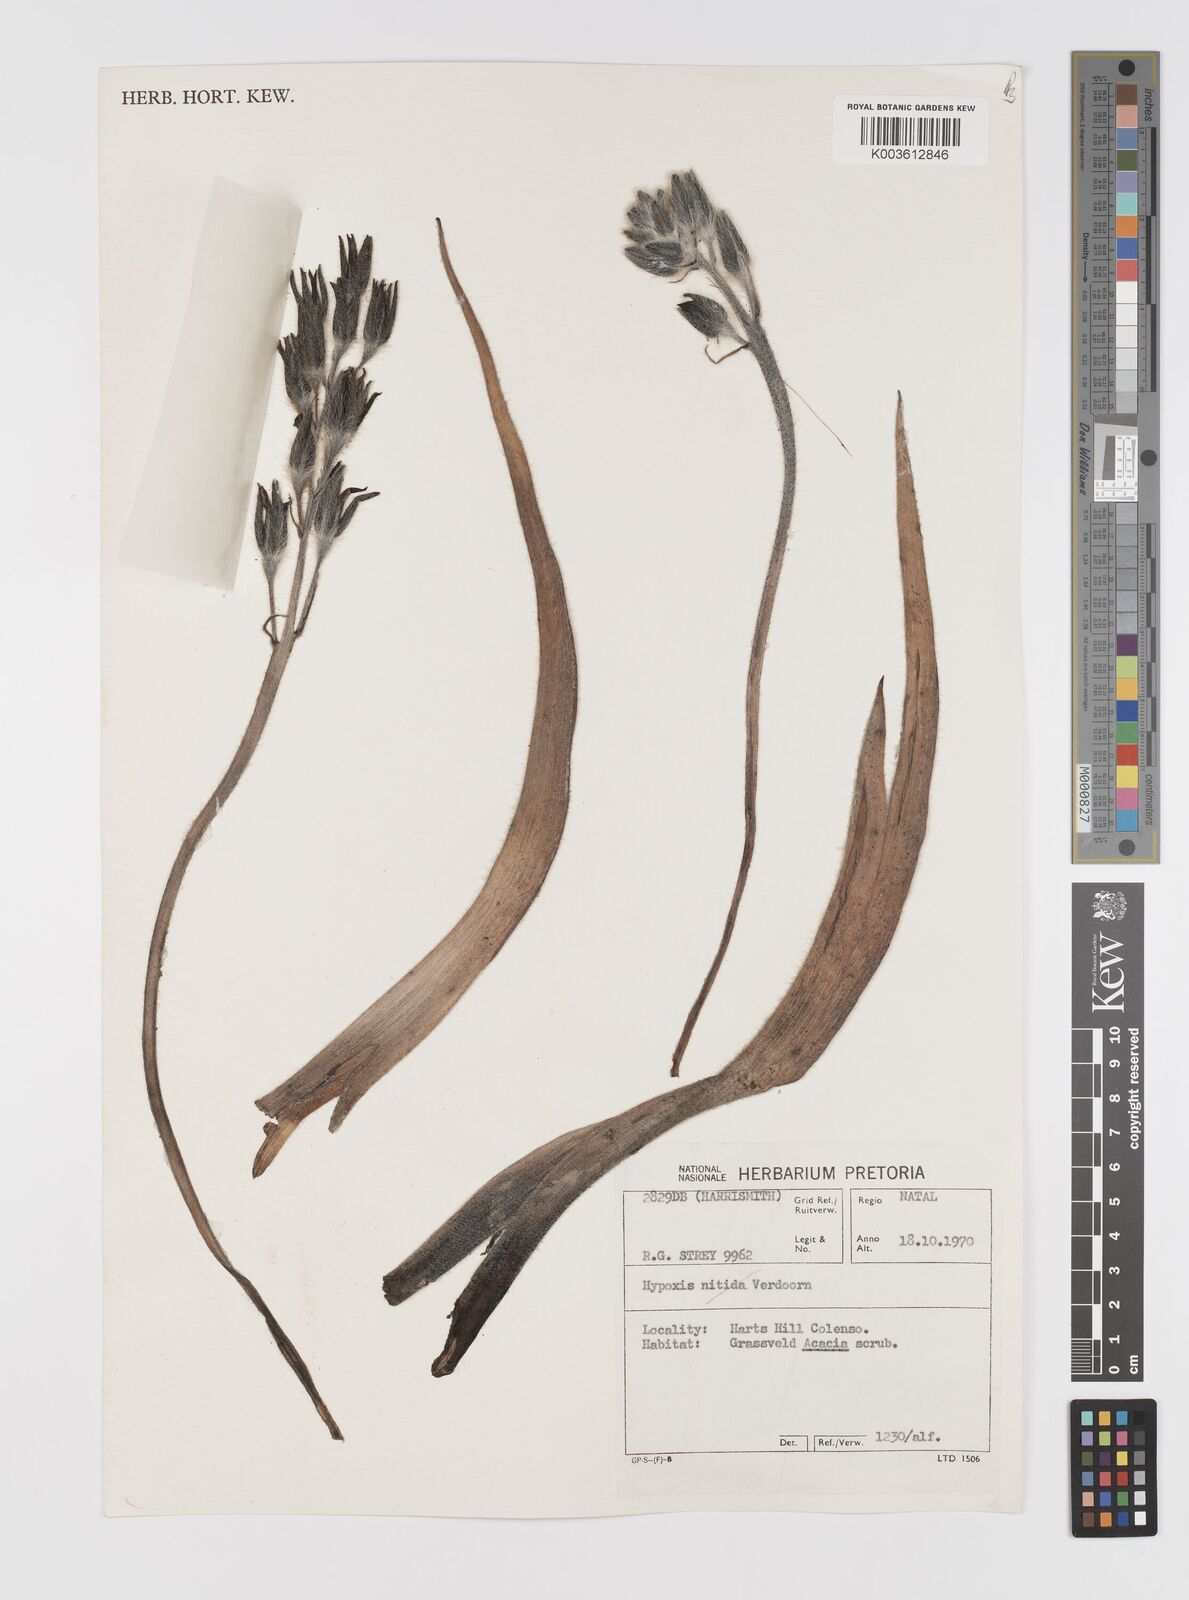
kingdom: Plantae
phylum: Tracheophyta
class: Liliopsida
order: Asparagales
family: Hypoxidaceae
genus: Hypoxis
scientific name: Hypoxis hemerocallidea
